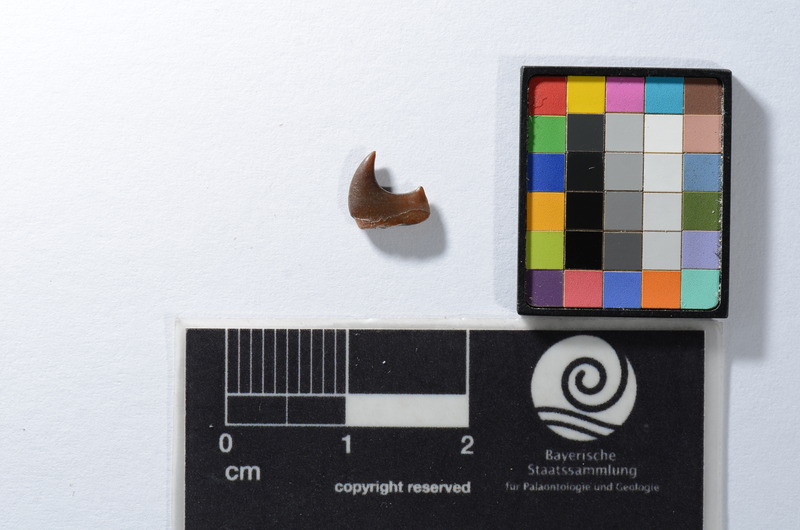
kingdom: Animalia
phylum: Chordata
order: Tetraodontiformes
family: Trigonodontidae
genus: Stephanodus
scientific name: Stephanodus Ancistrodon lybicus
